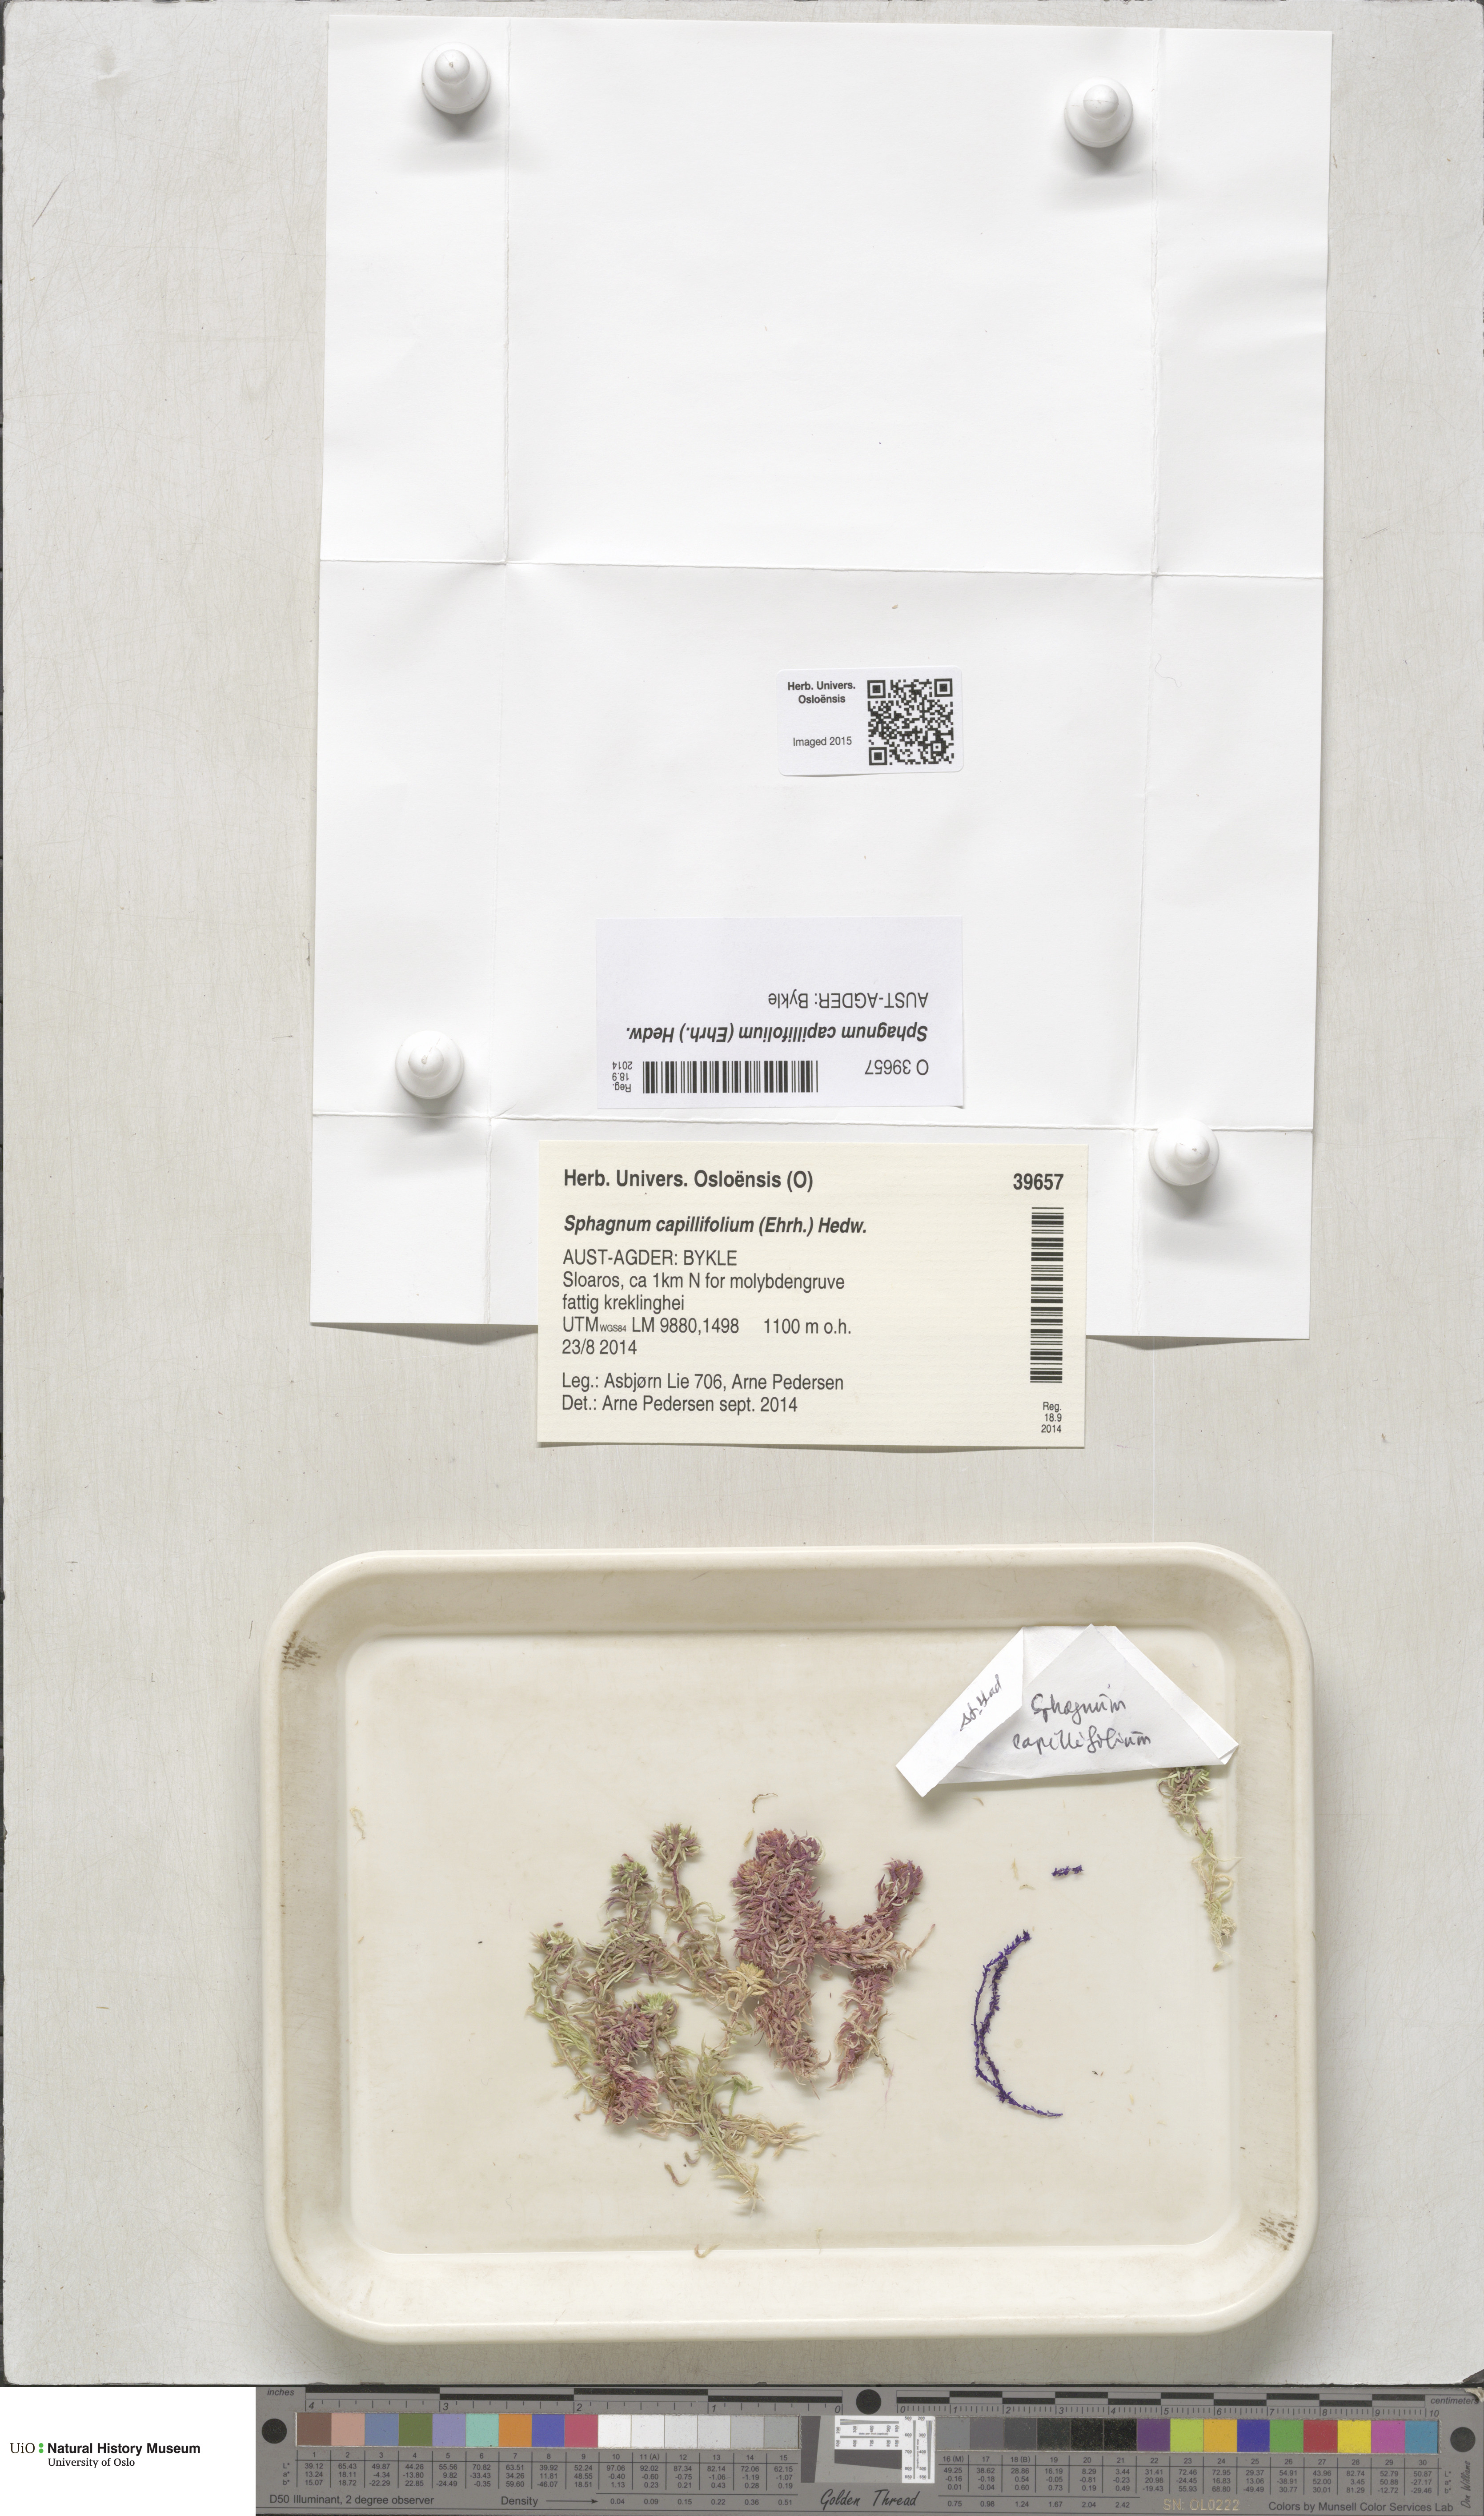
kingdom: Plantae
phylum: Bryophyta
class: Sphagnopsida
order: Sphagnales
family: Sphagnaceae
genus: Sphagnum
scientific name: Sphagnum capillifolium
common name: Small red peat moss
